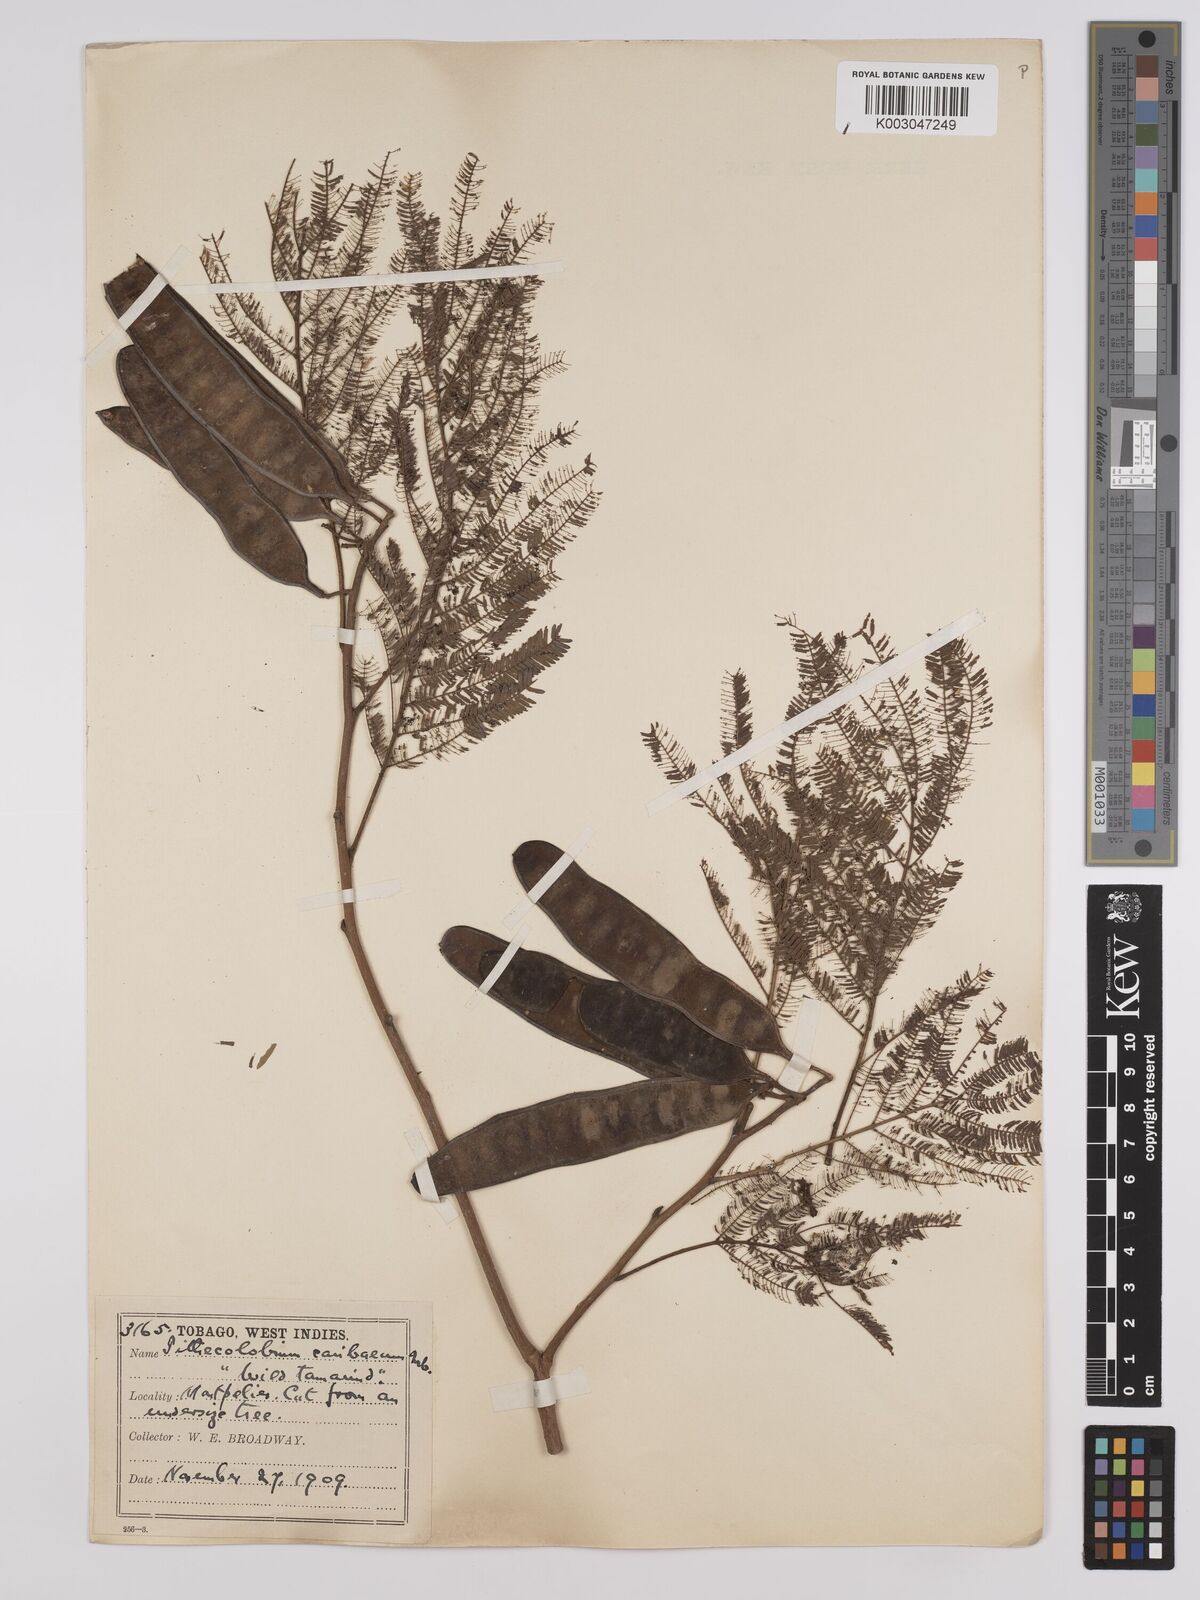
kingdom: Plantae
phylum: Tracheophyta
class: Magnoliopsida
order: Fabales
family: Fabaceae
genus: Albizia
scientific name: Albizia niopoides
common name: Silk tree
